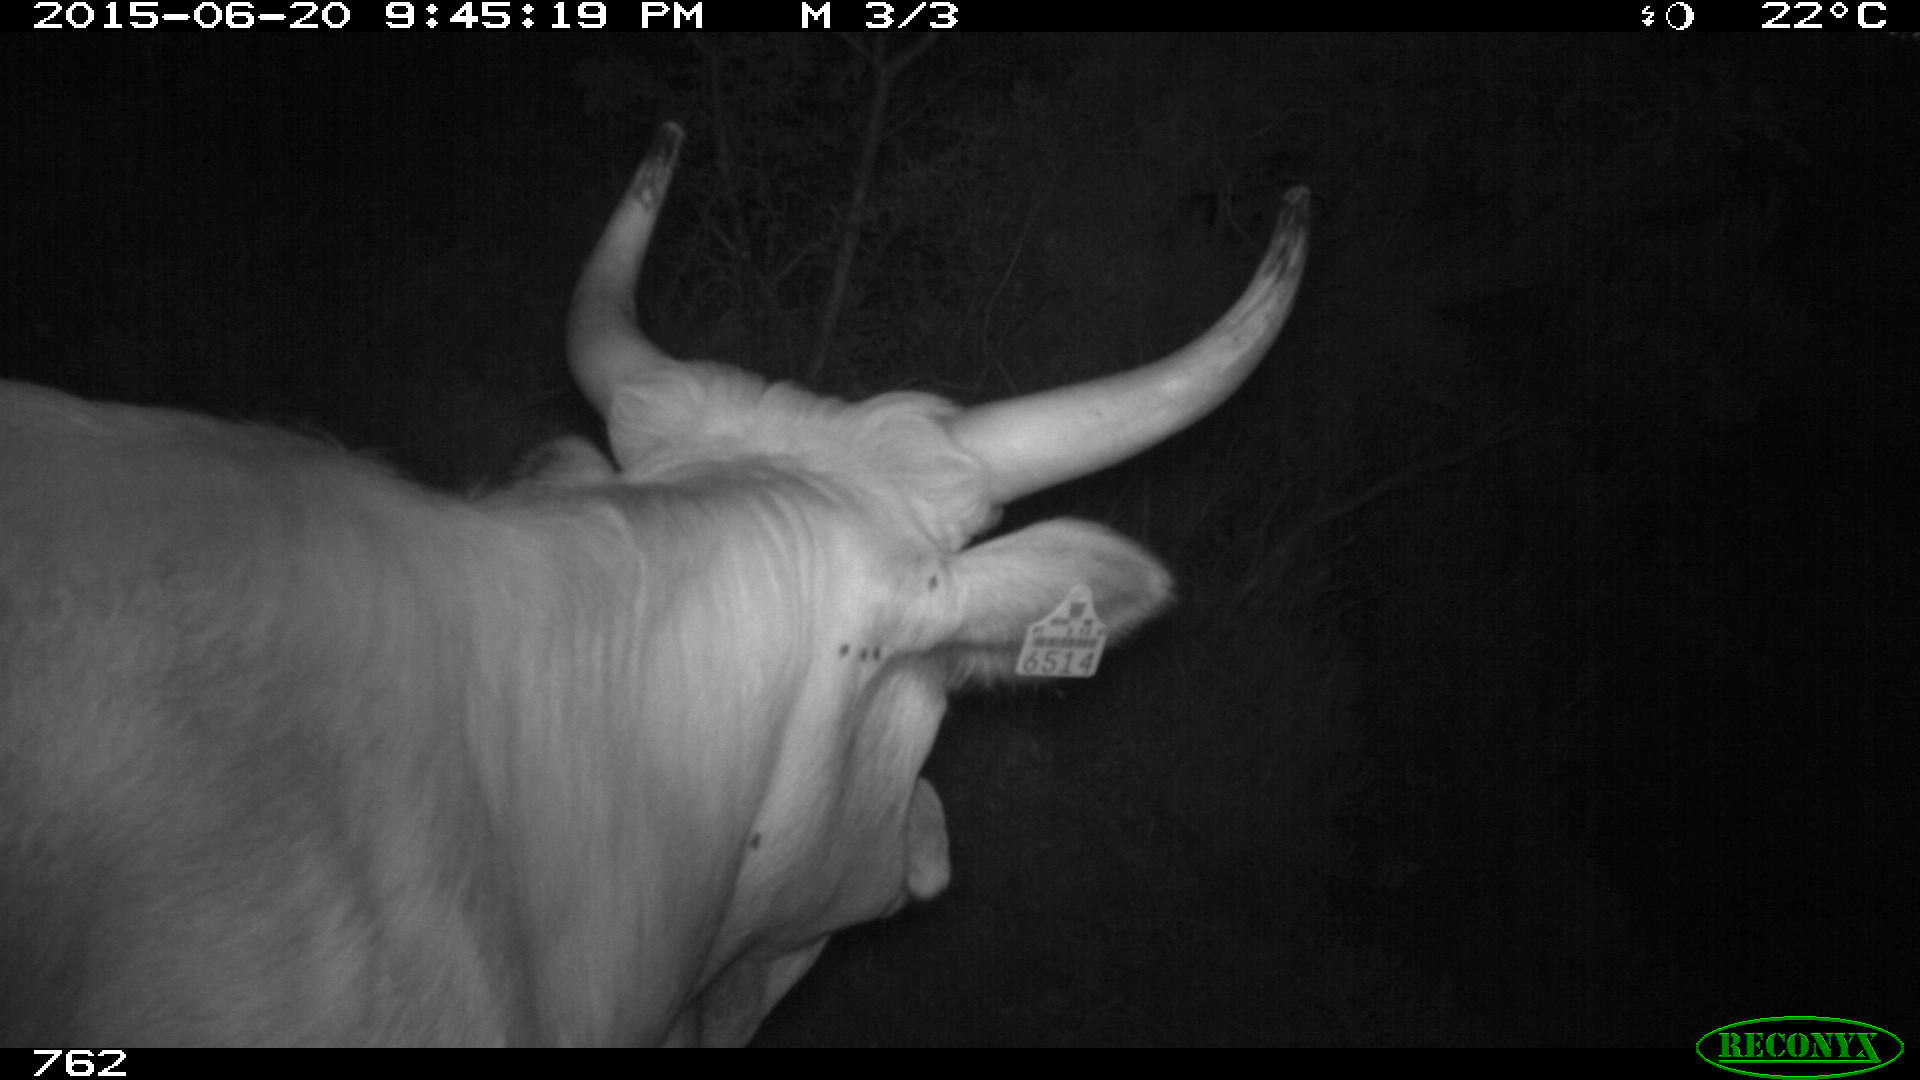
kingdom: Animalia
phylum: Chordata
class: Mammalia
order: Artiodactyla
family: Bovidae
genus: Bos
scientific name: Bos taurus
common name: Domesticated cattle
